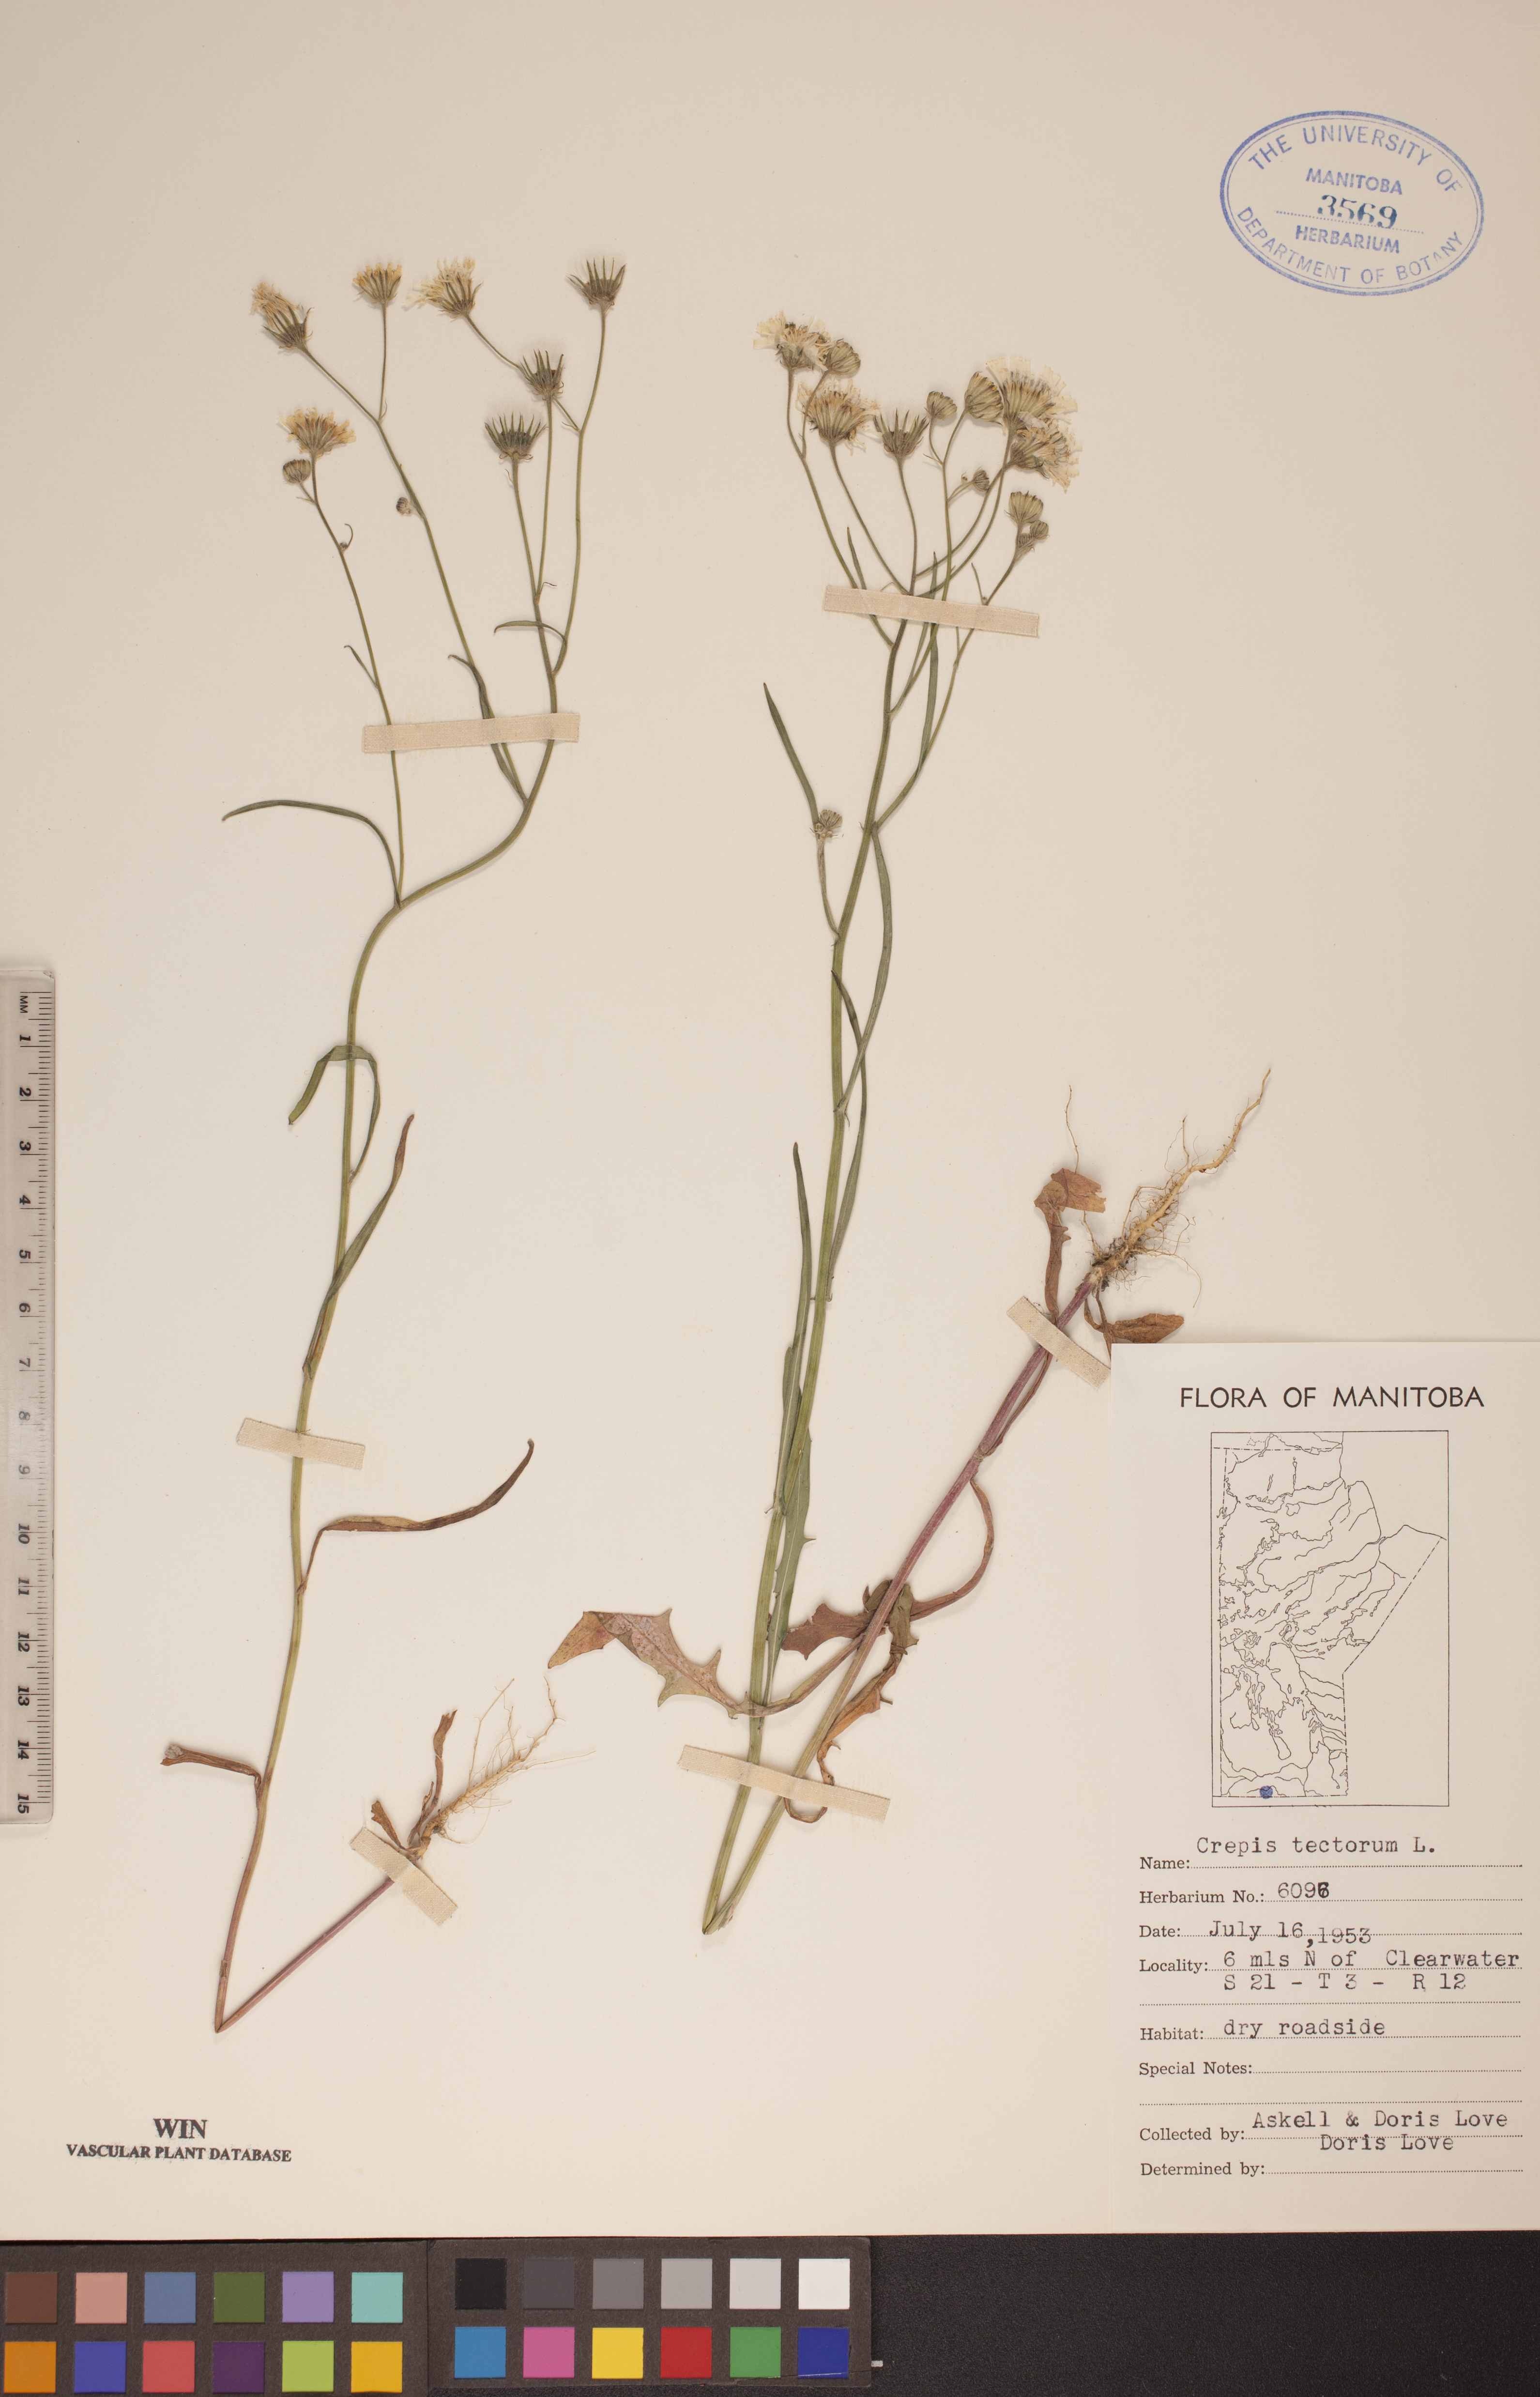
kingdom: Plantae
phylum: Tracheophyta
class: Magnoliopsida
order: Asterales
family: Asteraceae
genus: Crepis
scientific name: Crepis tectorum
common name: Narrow-leaved hawk's-beard
